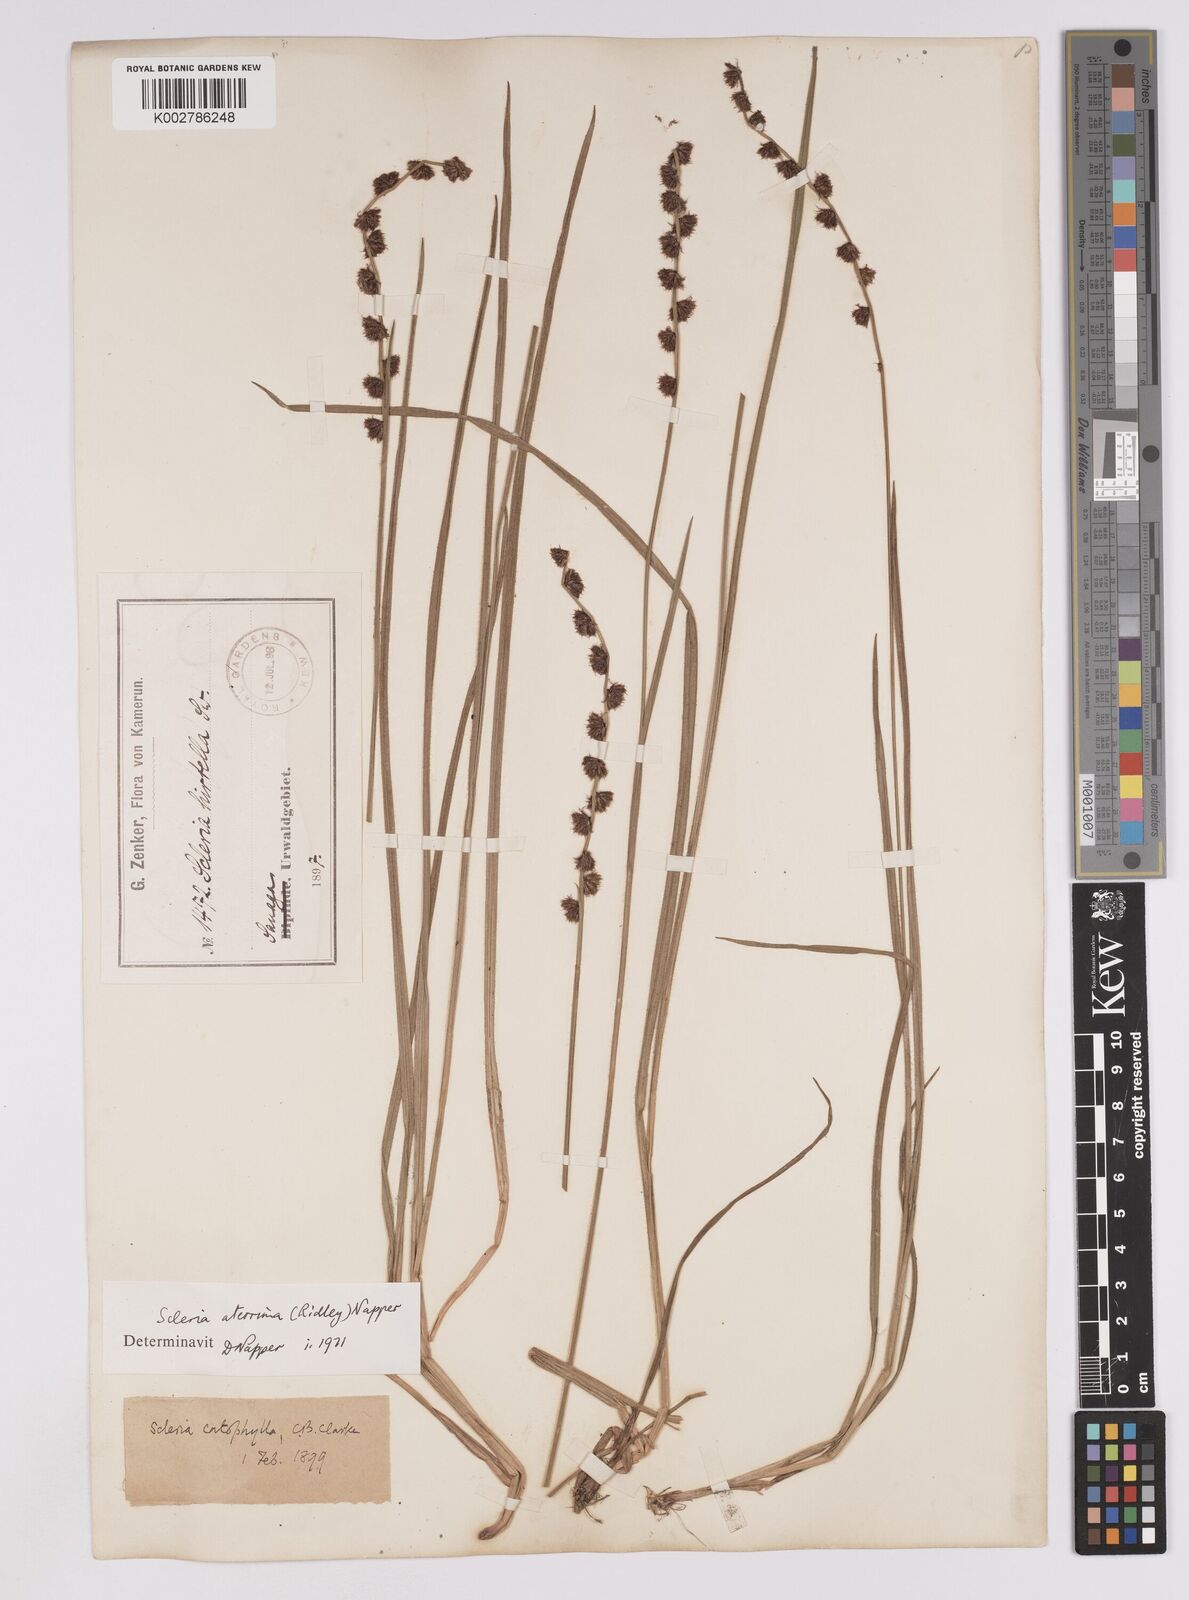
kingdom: Plantae
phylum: Tracheophyta
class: Liliopsida
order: Poales
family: Cyperaceae
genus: Scleria
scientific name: Scleria catophylla
